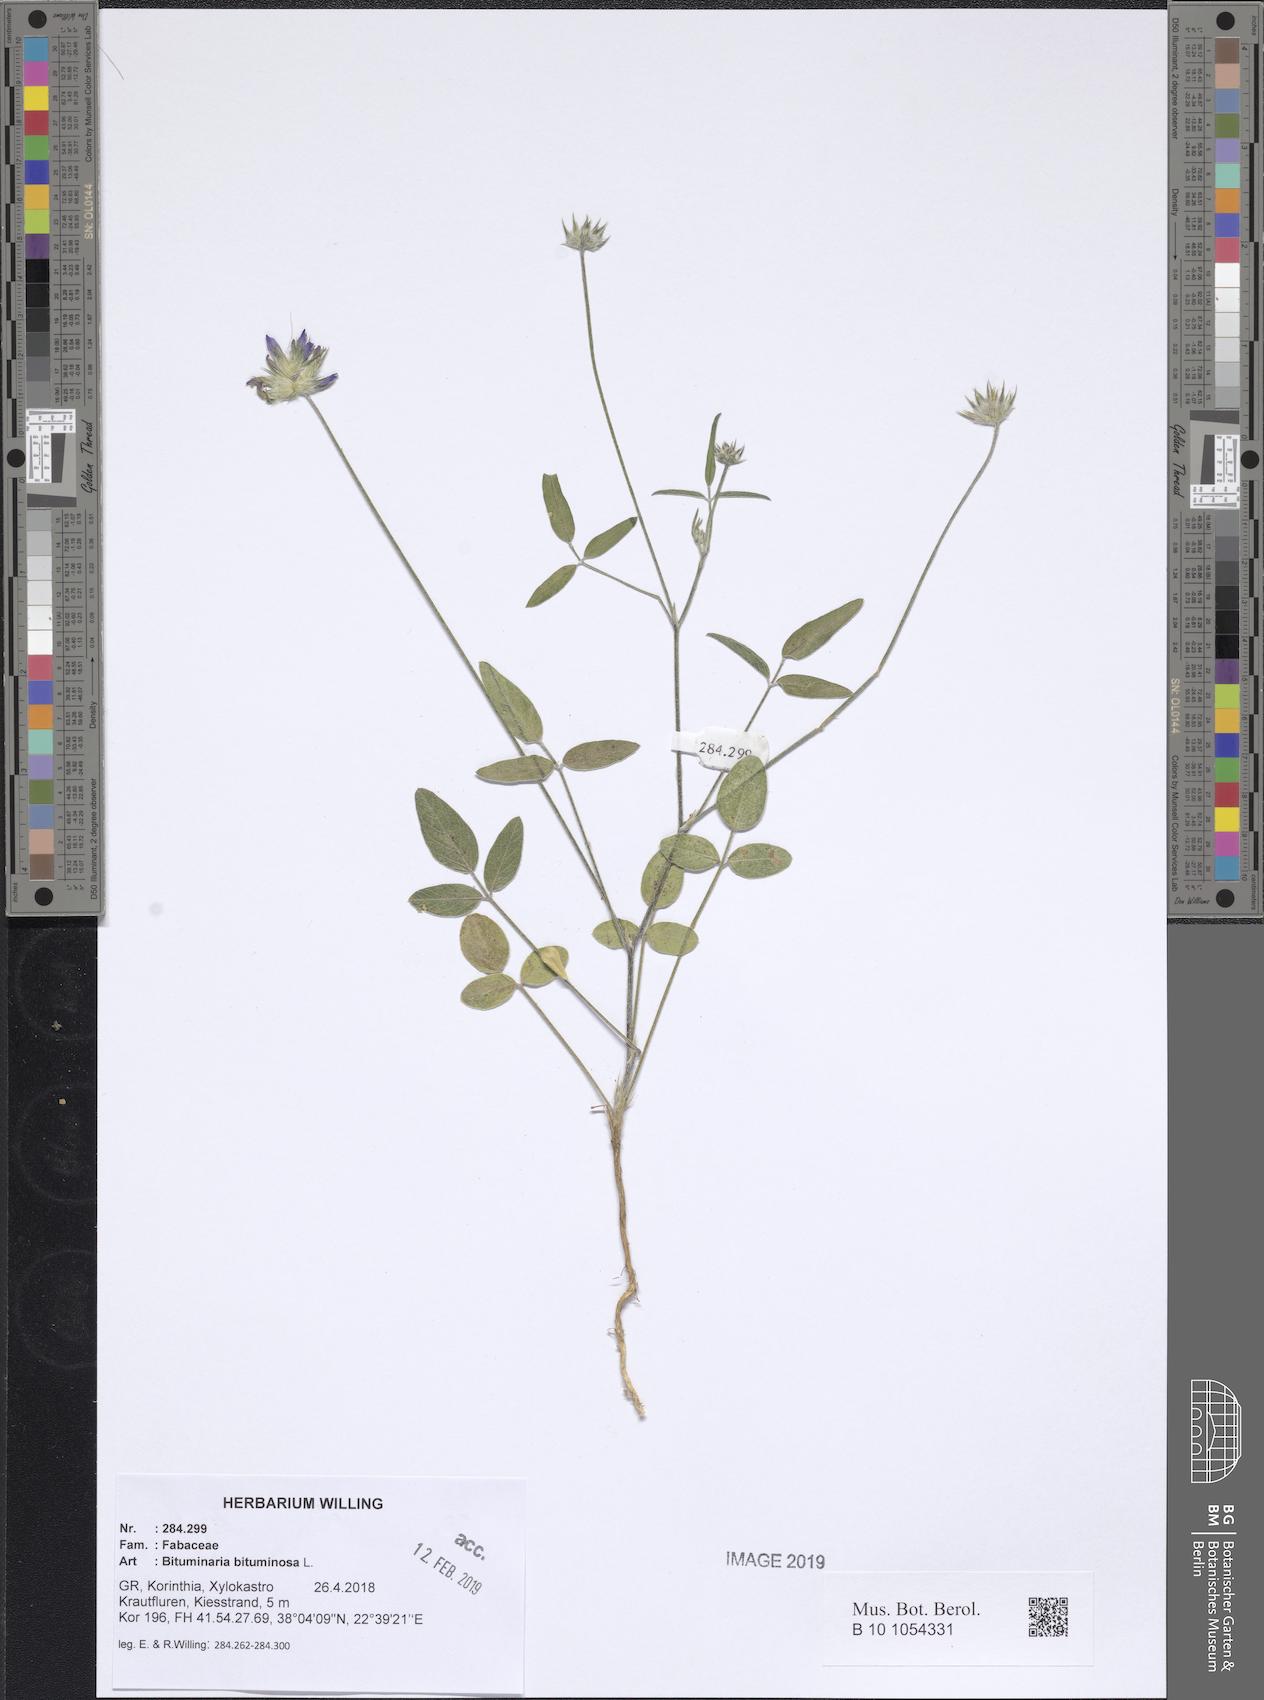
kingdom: Plantae
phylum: Tracheophyta
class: Magnoliopsida
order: Fabales
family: Fabaceae
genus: Bituminaria
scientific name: Bituminaria bituminosa
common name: Arabian pea
